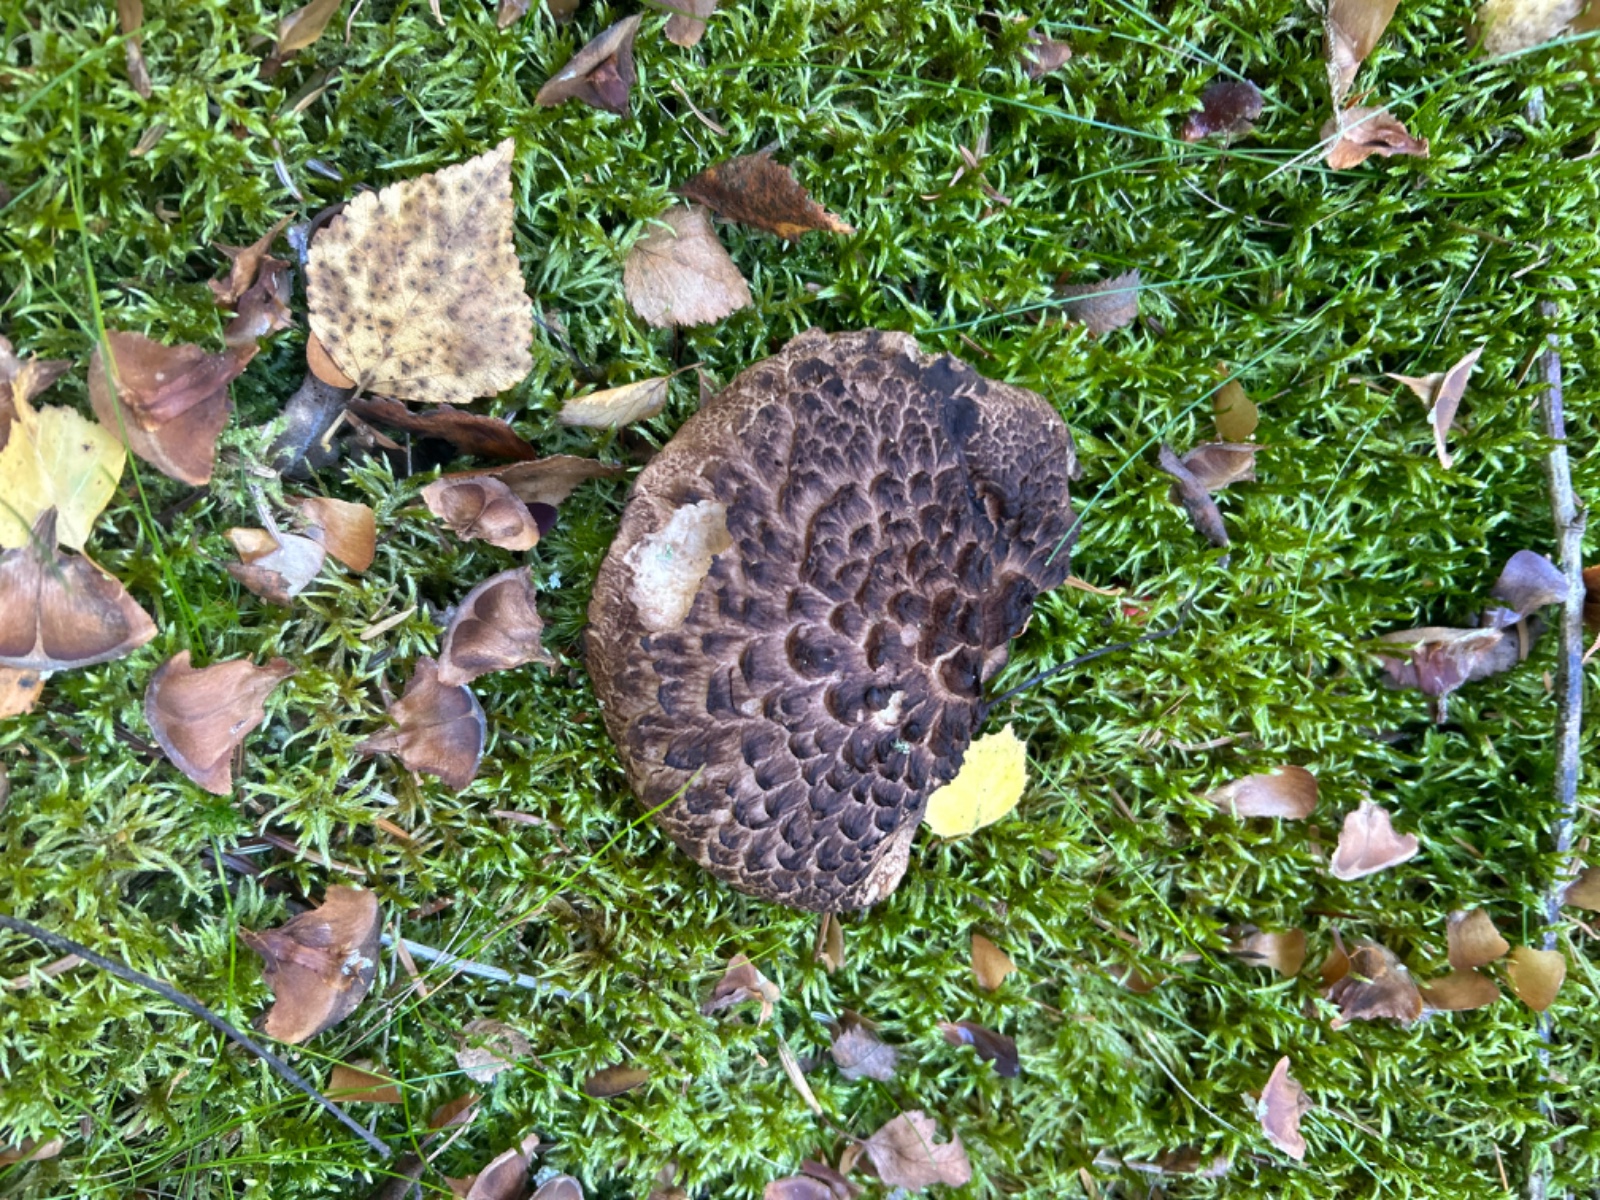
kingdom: Fungi
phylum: Basidiomycota
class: Agaricomycetes
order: Thelephorales
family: Bankeraceae
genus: Sarcodon
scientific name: Sarcodon squamosus
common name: småskællet kødpigsvamp
